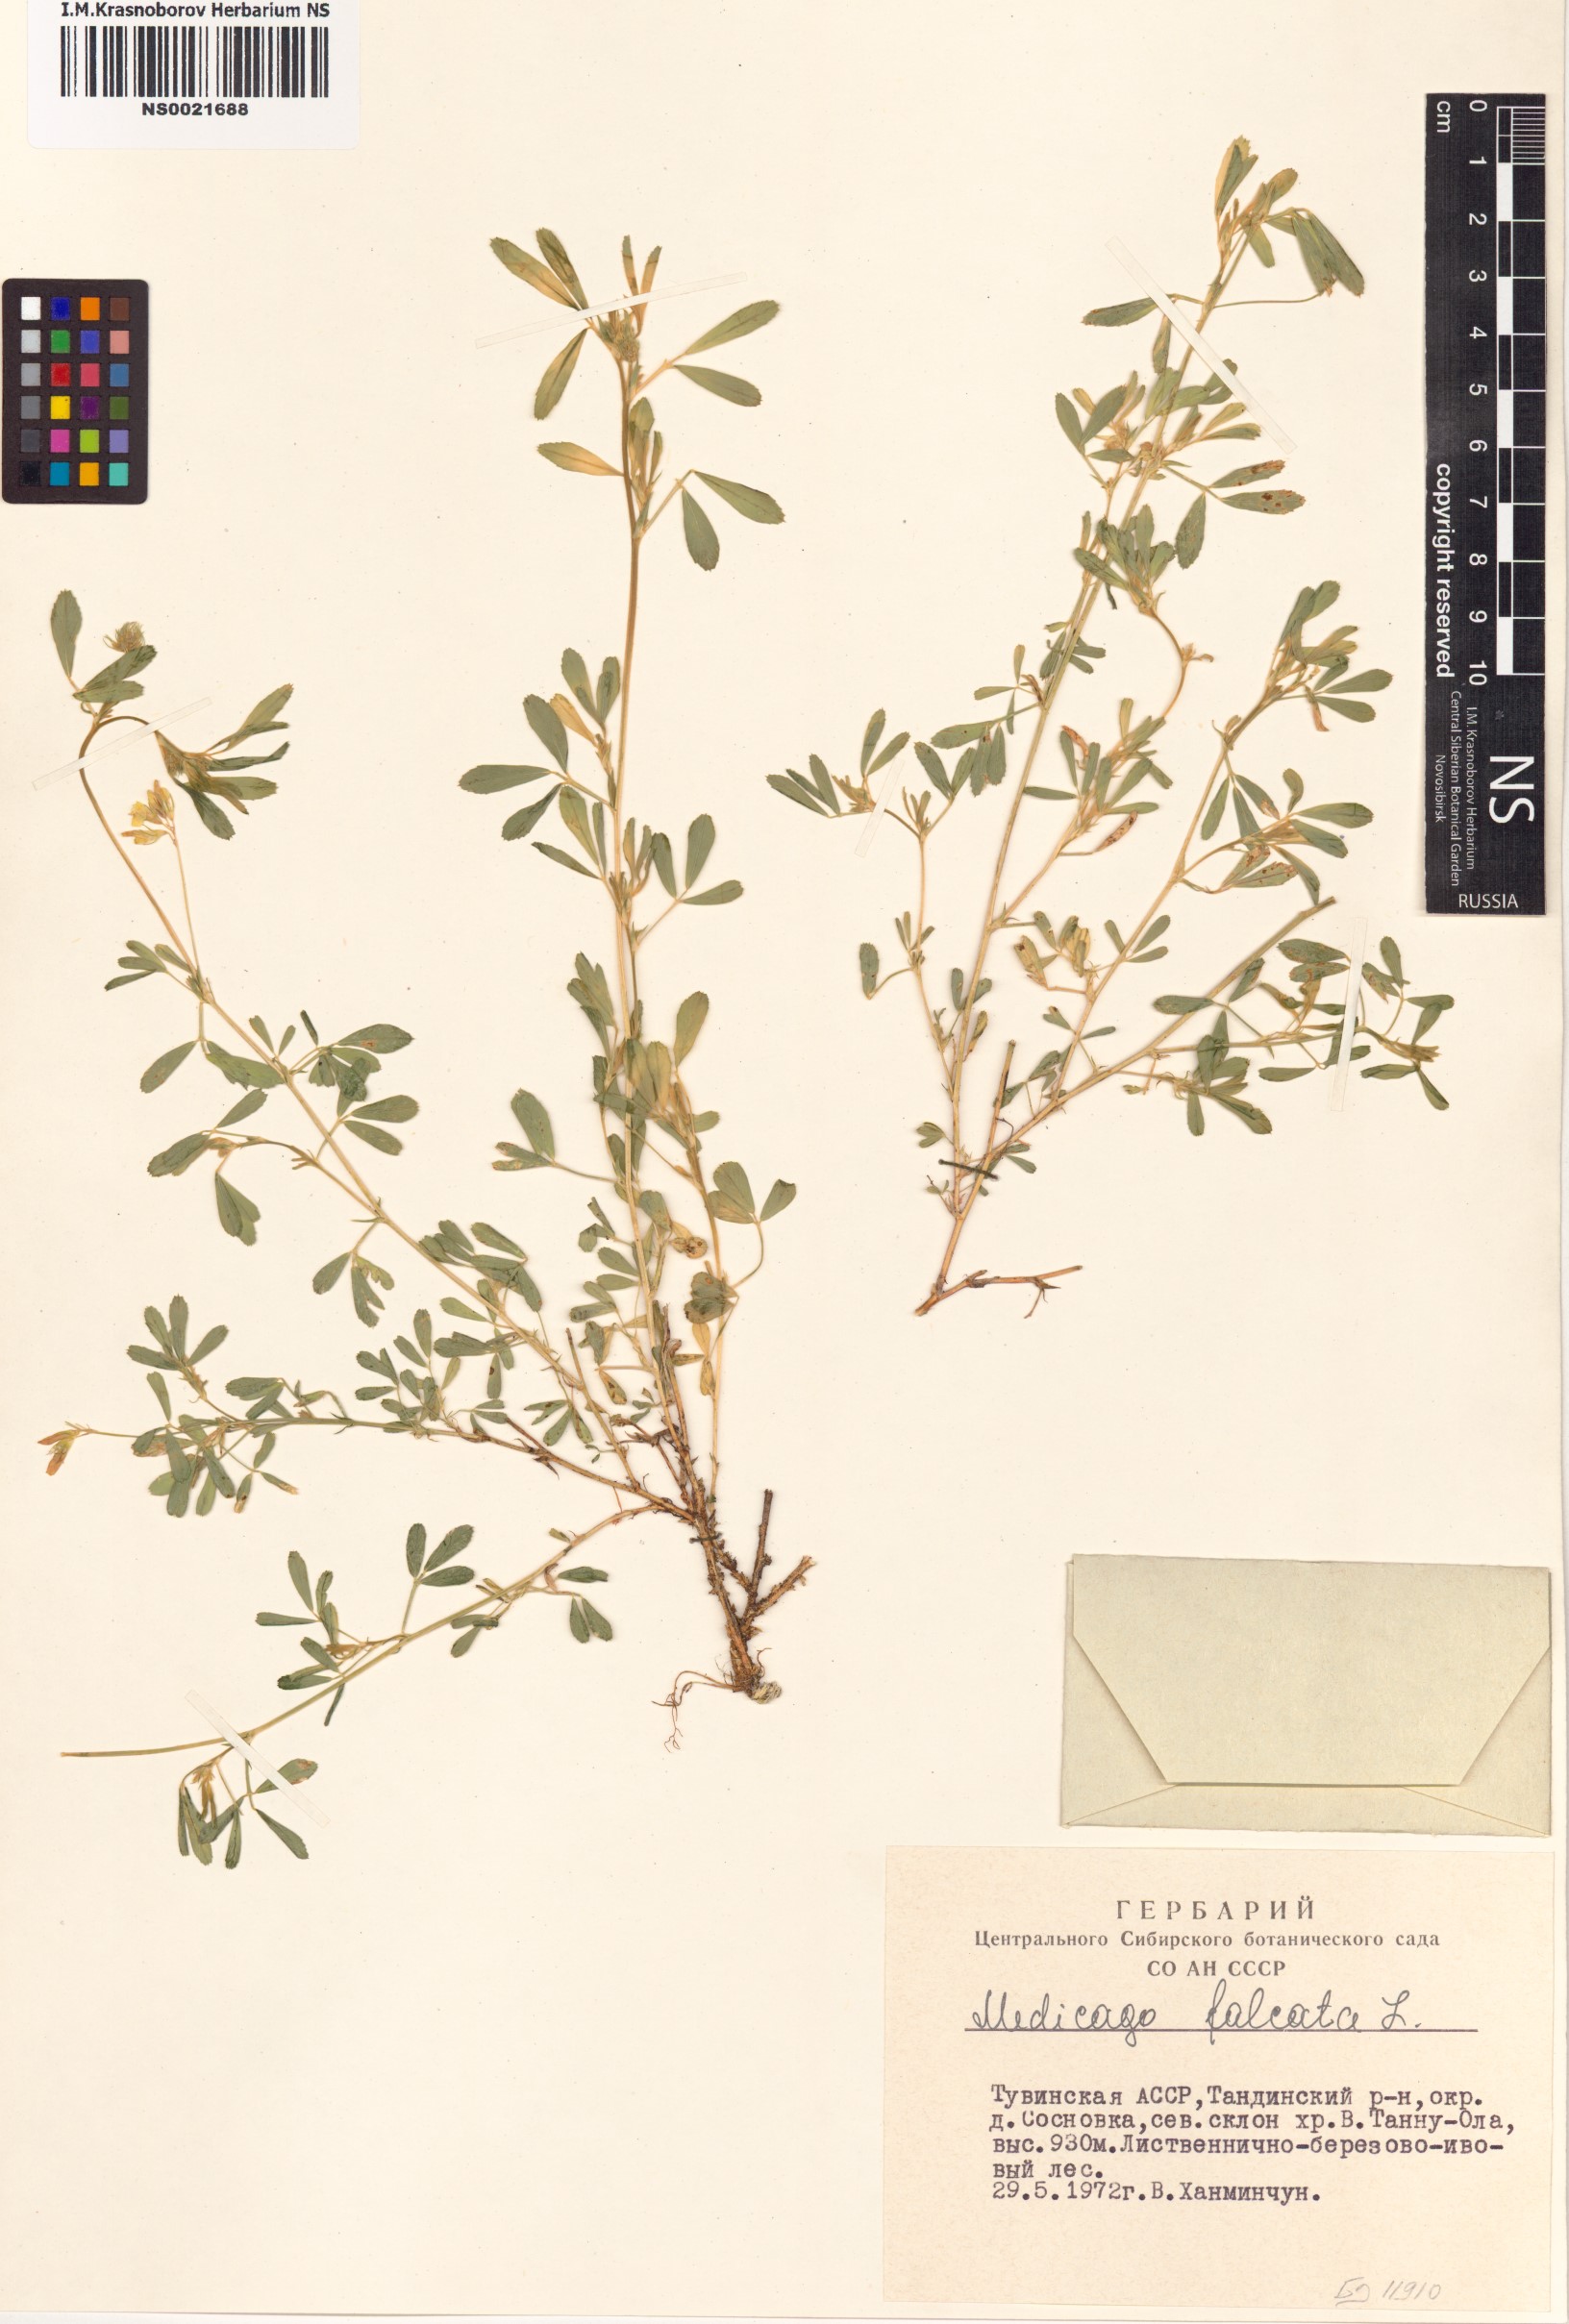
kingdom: Plantae
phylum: Tracheophyta
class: Magnoliopsida
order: Fabales
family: Fabaceae
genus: Medicago
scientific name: Medicago falcata
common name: Sickle medick
